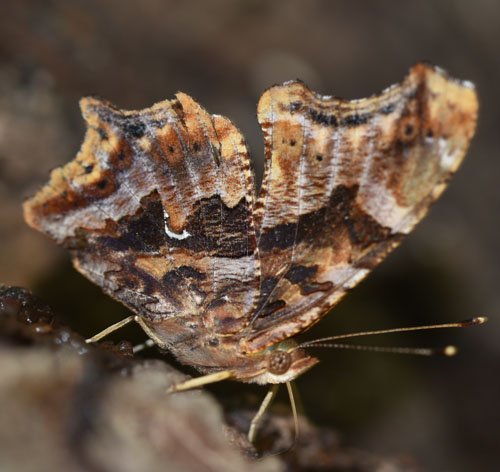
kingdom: Animalia
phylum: Arthropoda
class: Insecta
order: Lepidoptera
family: Nymphalidae
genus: Polygonia
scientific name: Polygonia comma
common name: Eastern Comma
